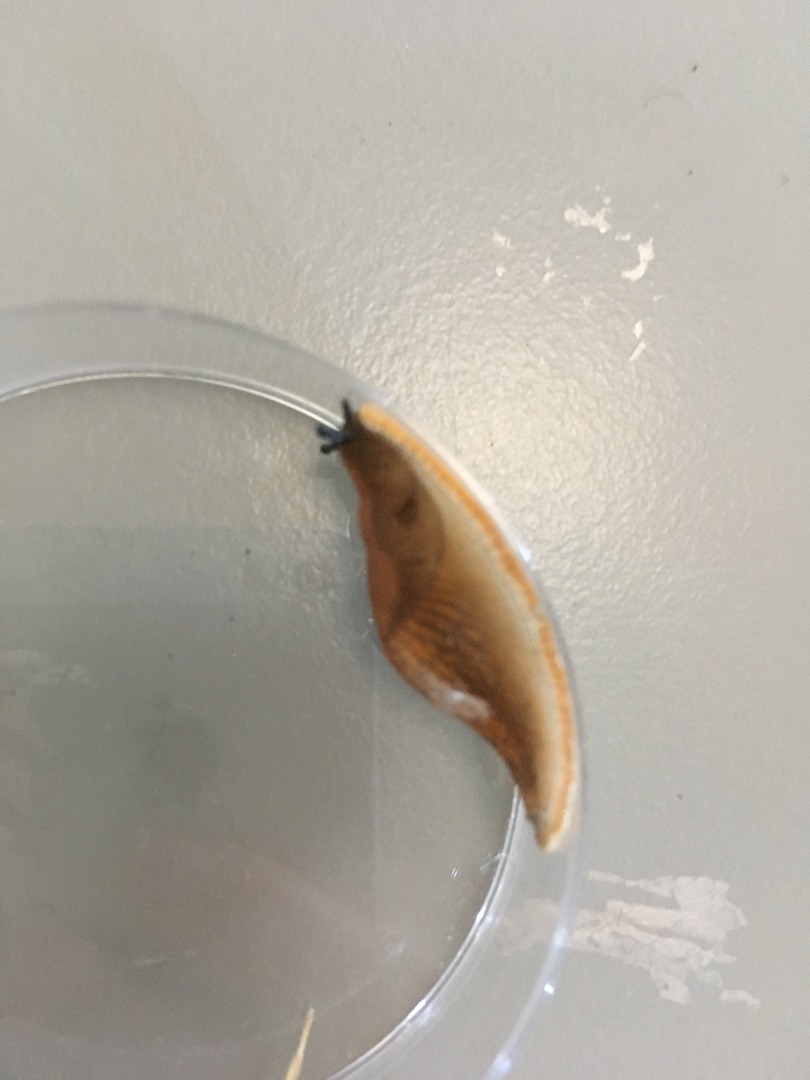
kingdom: Animalia
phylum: Mollusca
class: Gastropoda
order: Stylommatophora
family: Arionidae
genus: Arion
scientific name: Arion
